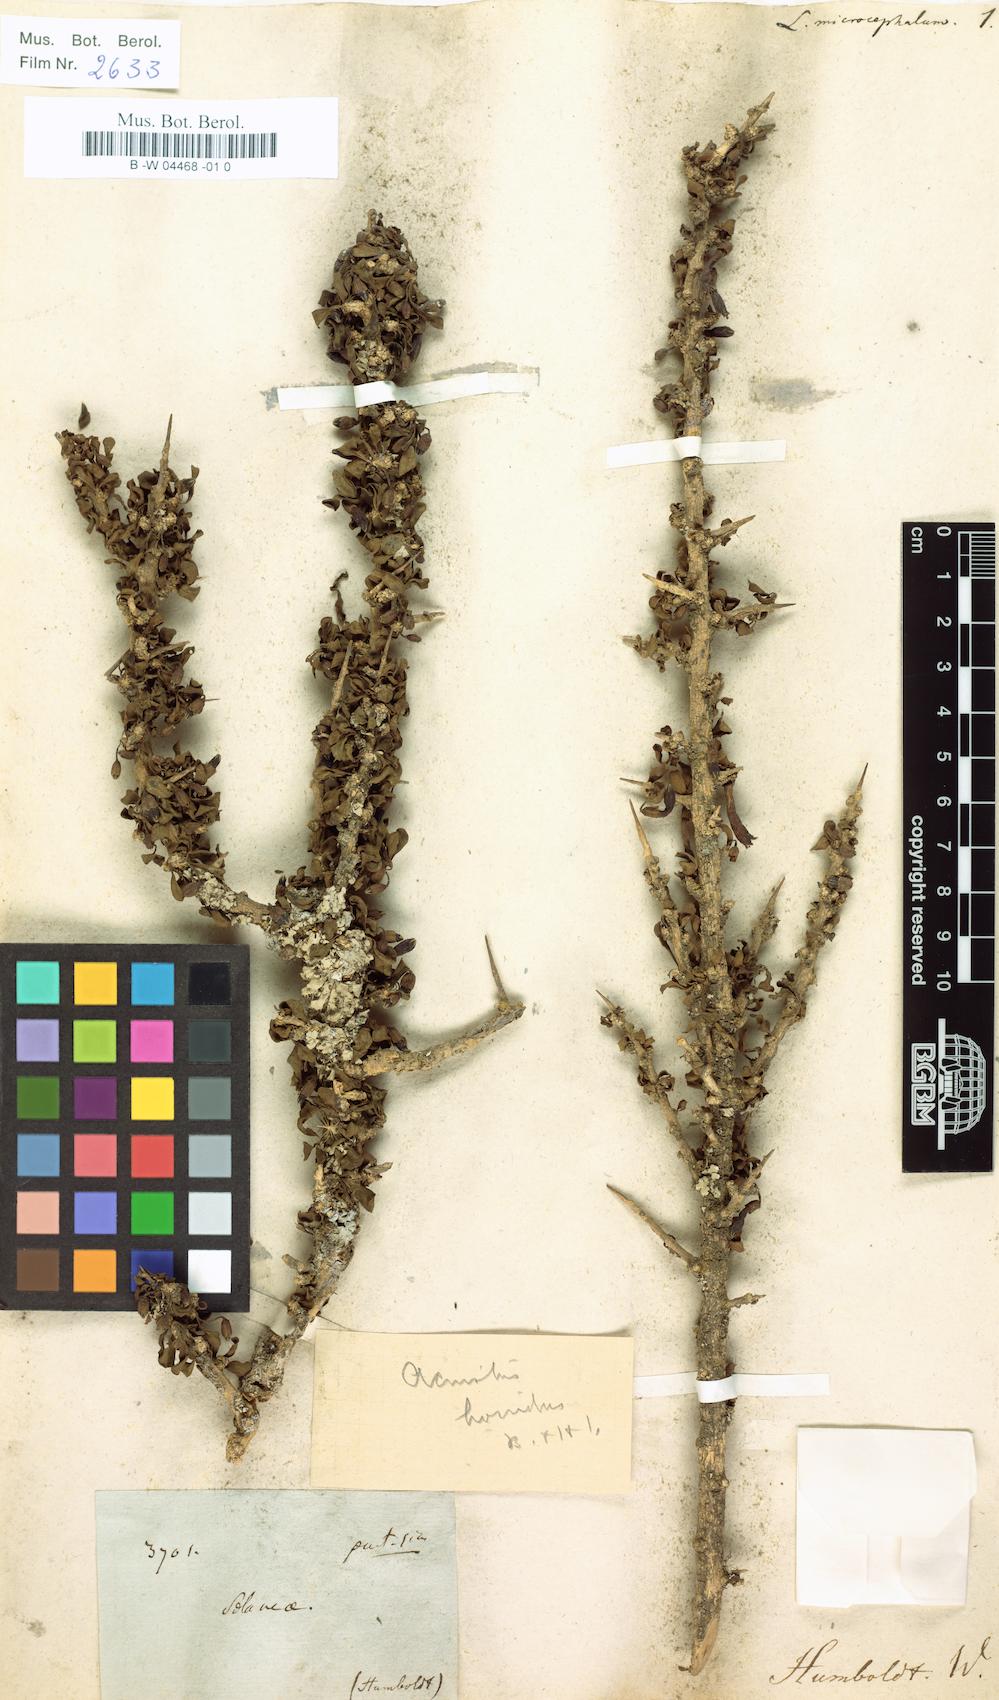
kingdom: Plantae
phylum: Tracheophyta
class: Magnoliopsida
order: Solanales
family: Solanaceae
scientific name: Solanaceae
